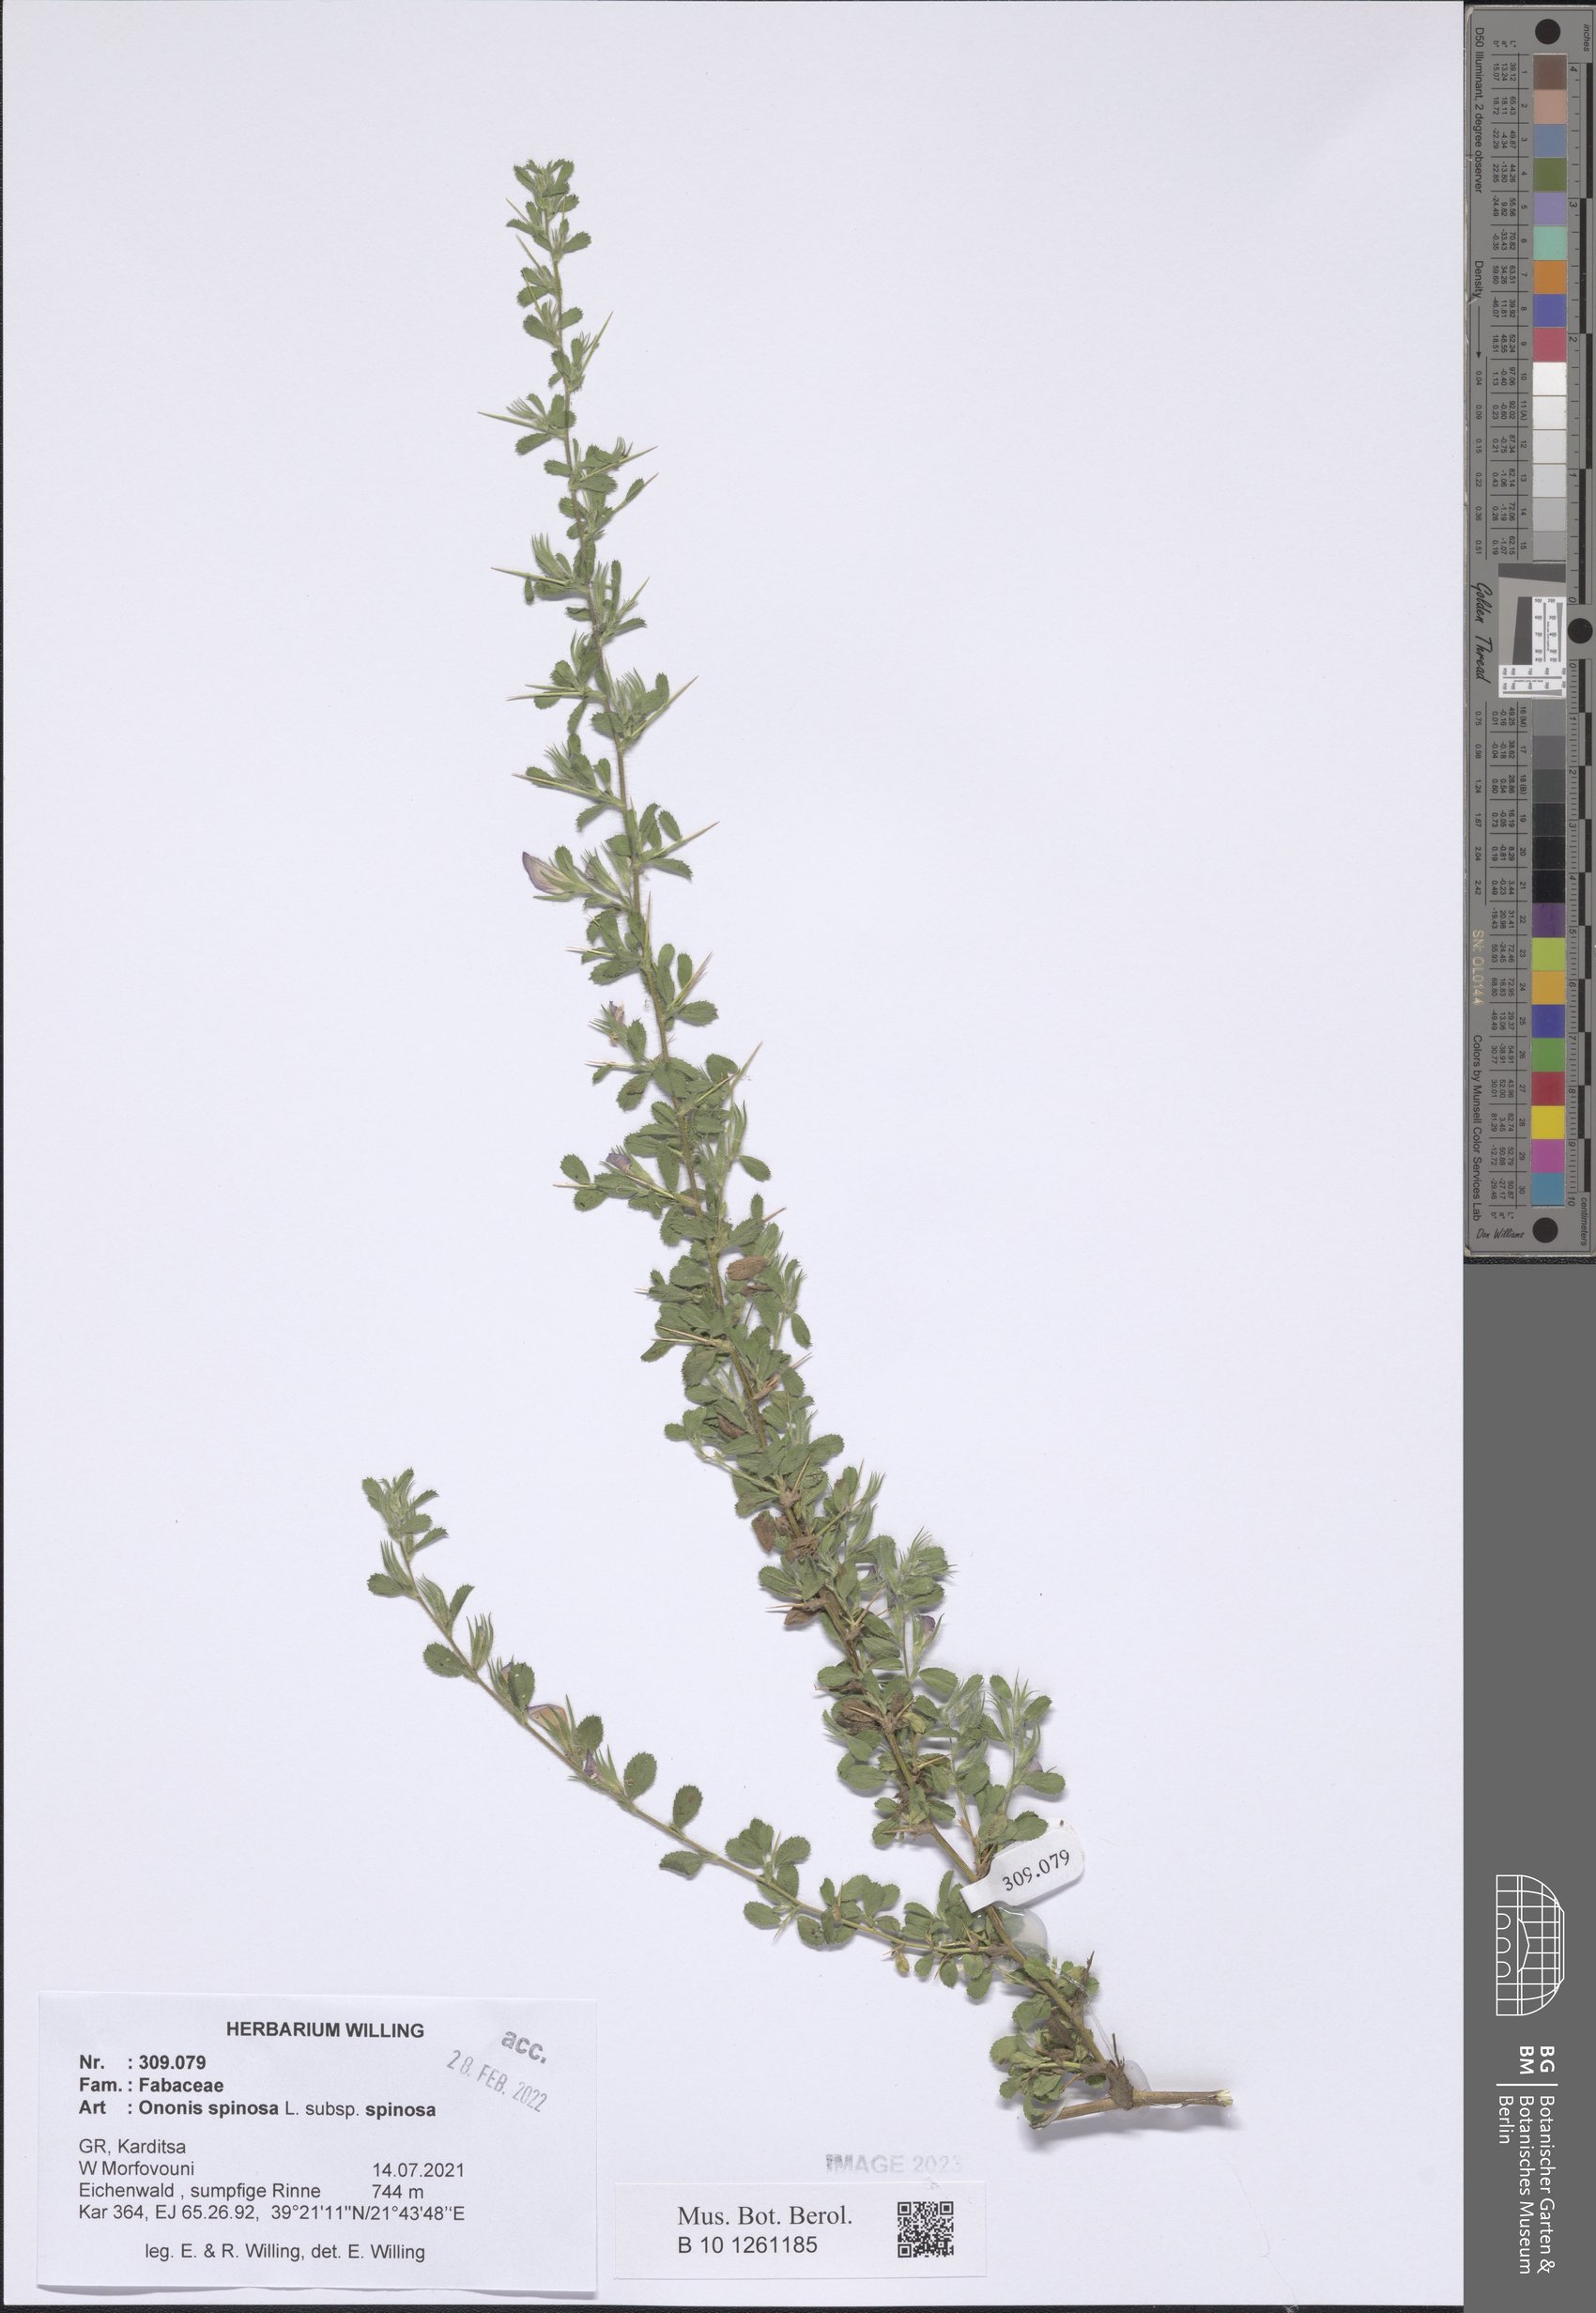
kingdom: Plantae
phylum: Tracheophyta
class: Magnoliopsida
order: Fabales
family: Fabaceae
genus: Ononis
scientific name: Ononis spinosa
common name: Spiny restharrow
